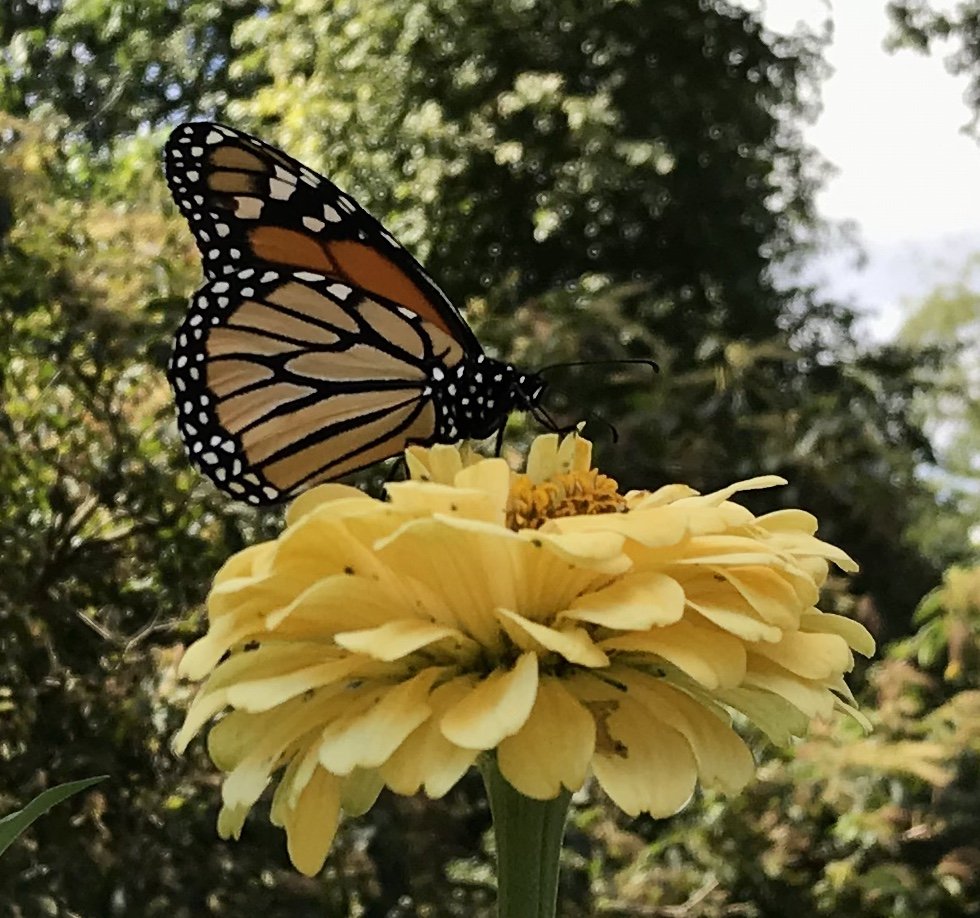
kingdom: Animalia
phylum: Arthropoda
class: Insecta
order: Lepidoptera
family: Nymphalidae
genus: Danaus
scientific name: Danaus plexippus
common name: Monarch
